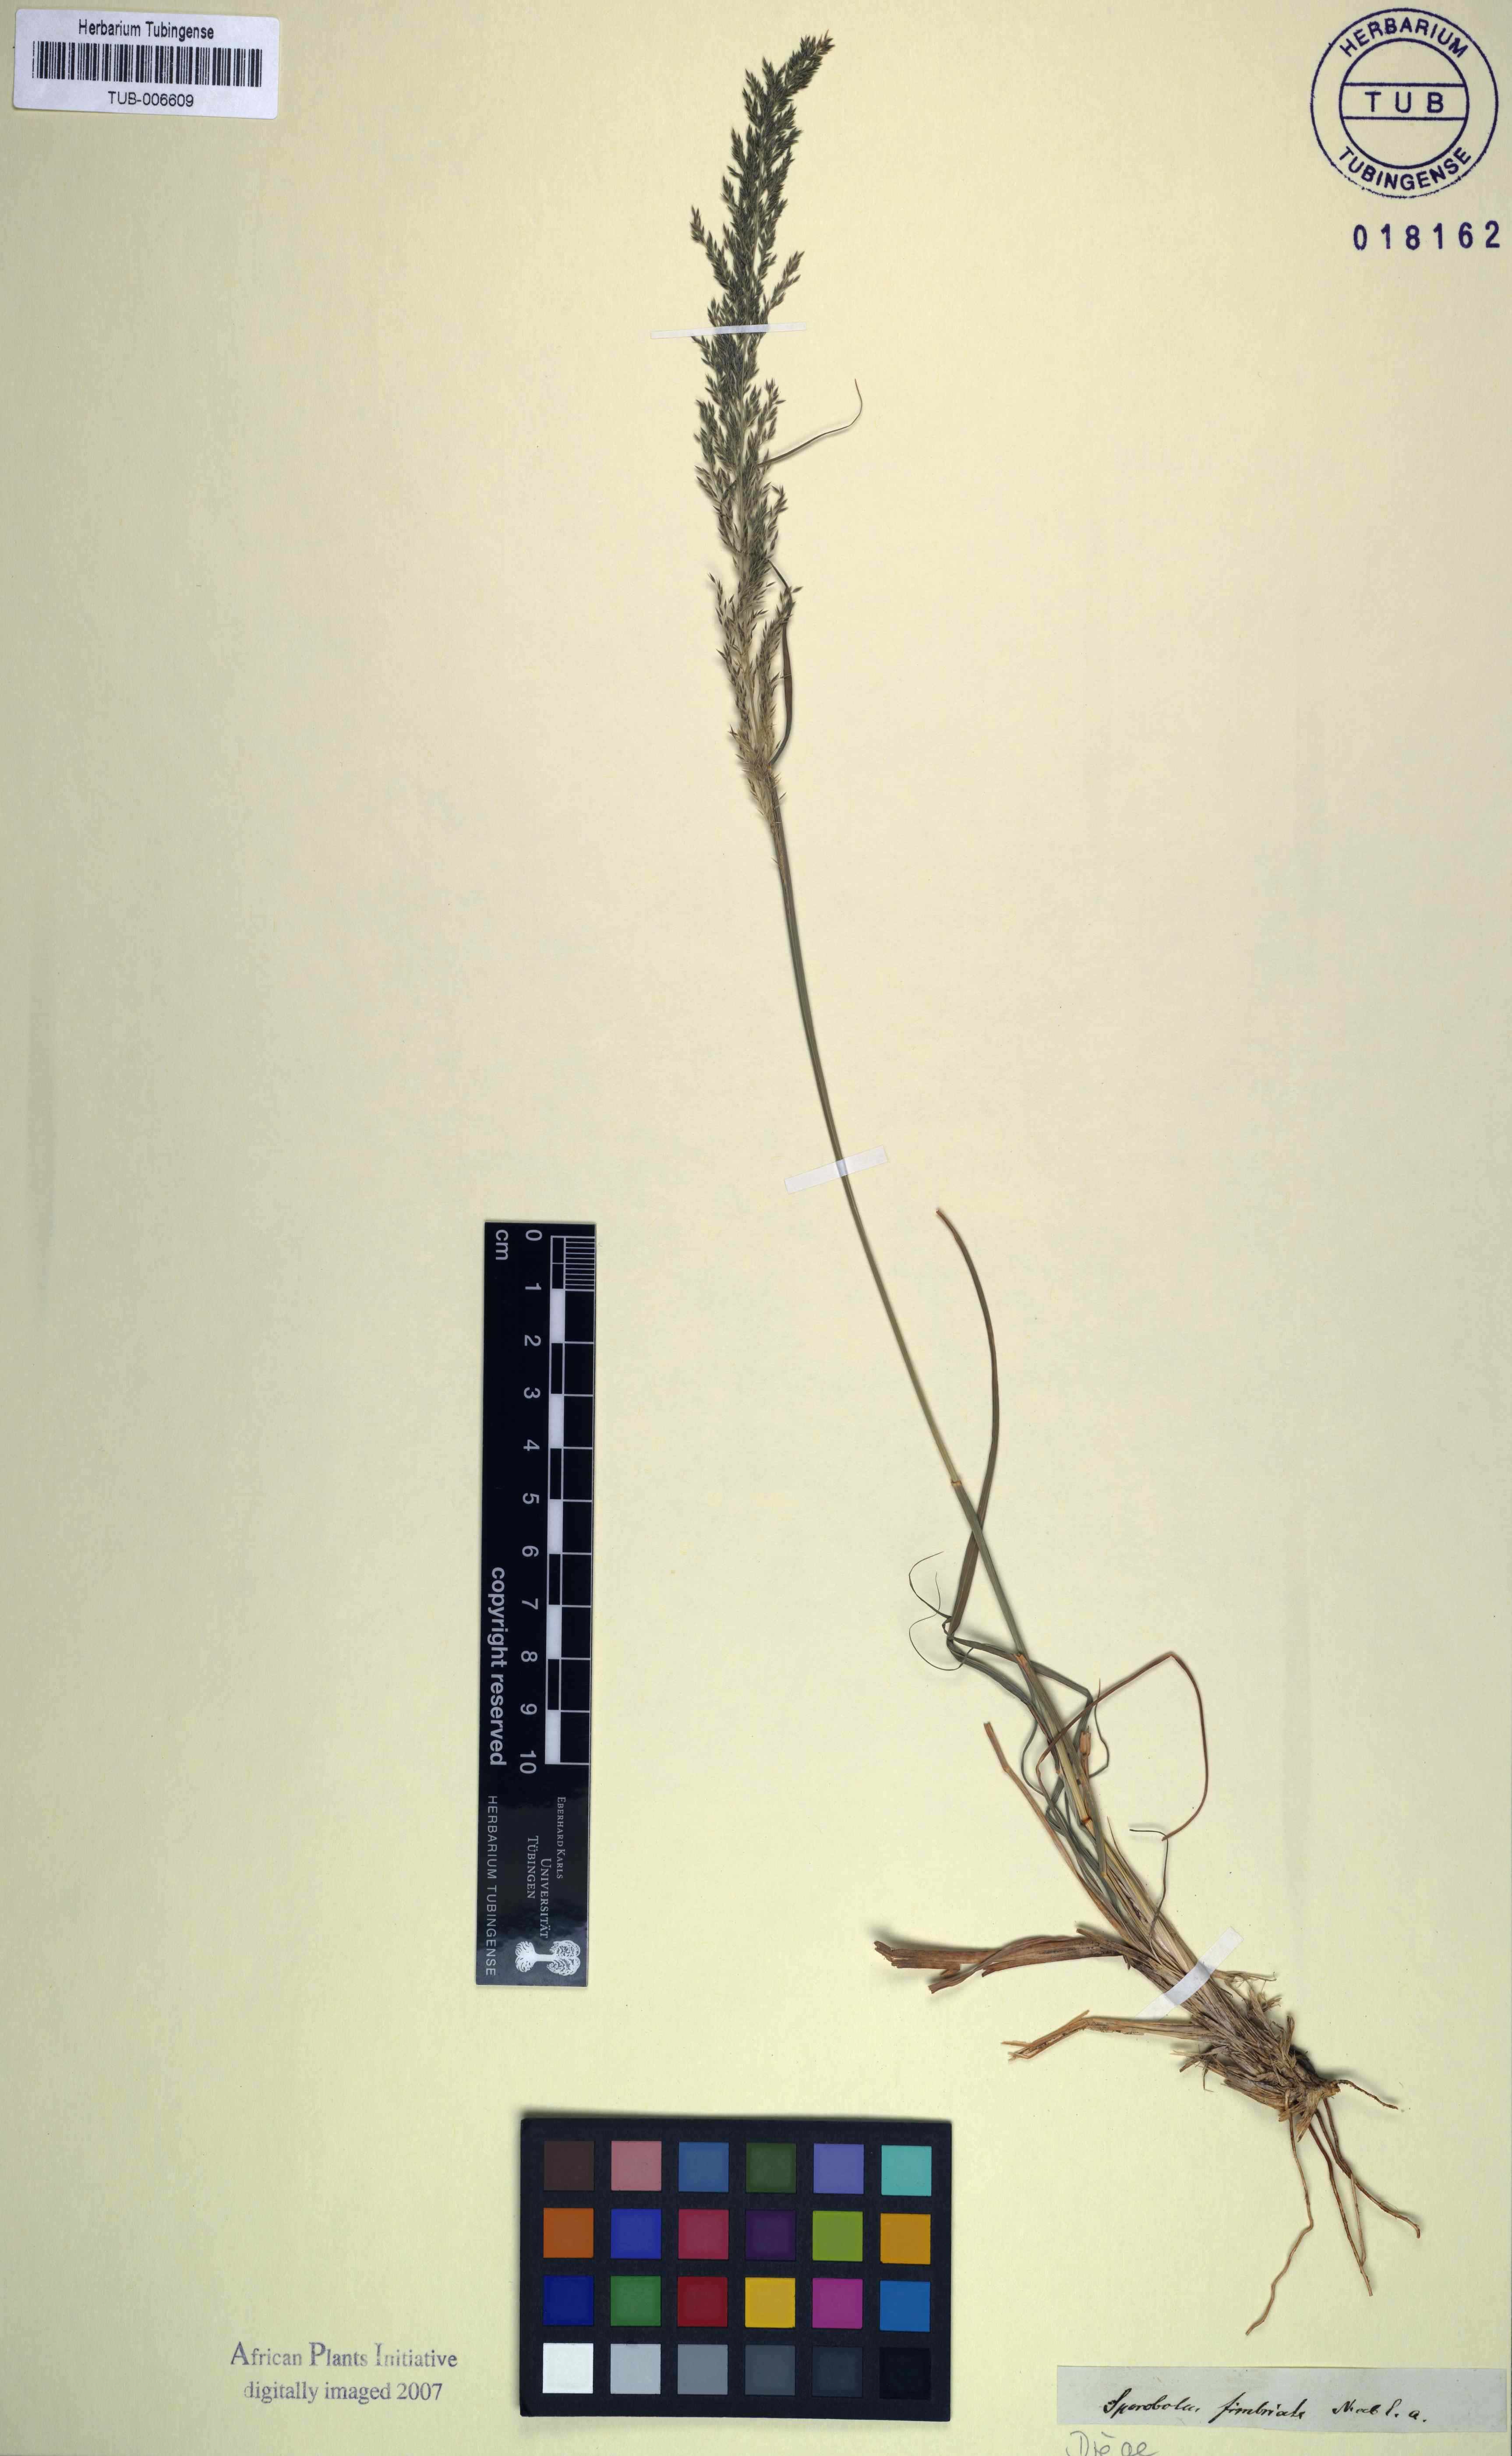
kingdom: Plantae
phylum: Tracheophyta
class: Liliopsida
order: Poales
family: Poaceae
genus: Sporobolus
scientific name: Sporobolus fimbriatus
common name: Fringed dropseed
